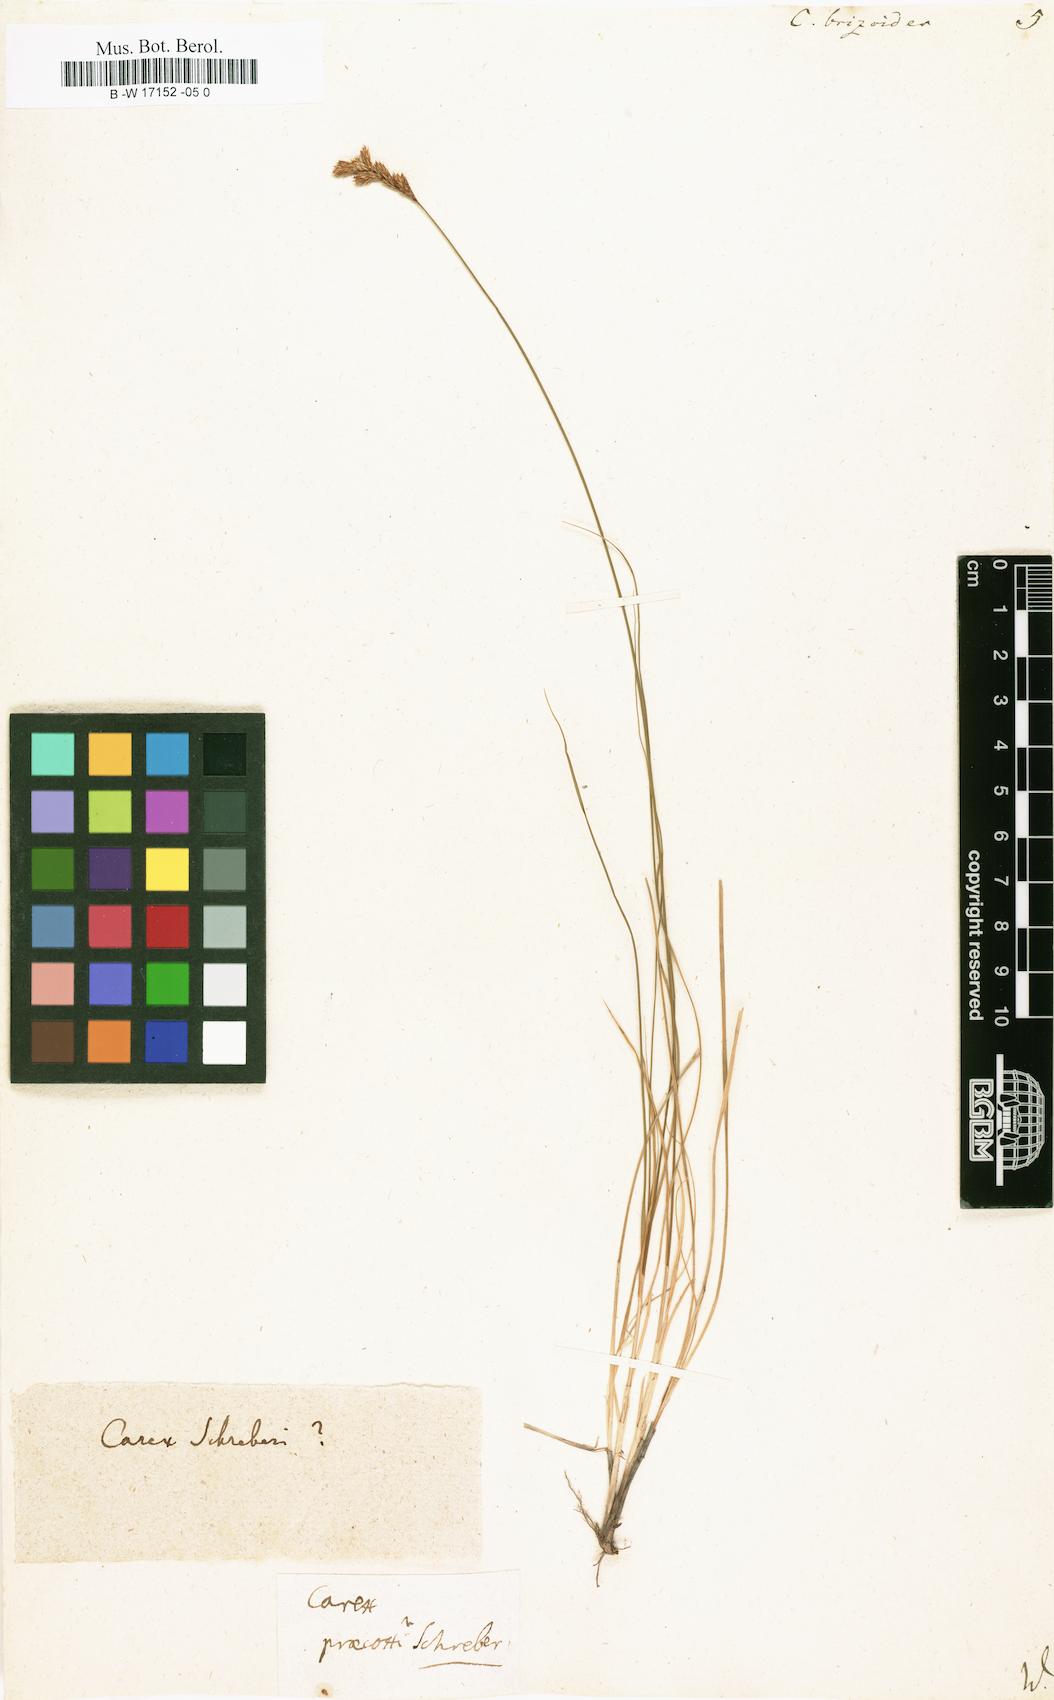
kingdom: Plantae
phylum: Tracheophyta
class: Liliopsida
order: Poales
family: Cyperaceae
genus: Carex
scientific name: Carex brizoides
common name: Quaking-grass sedge
